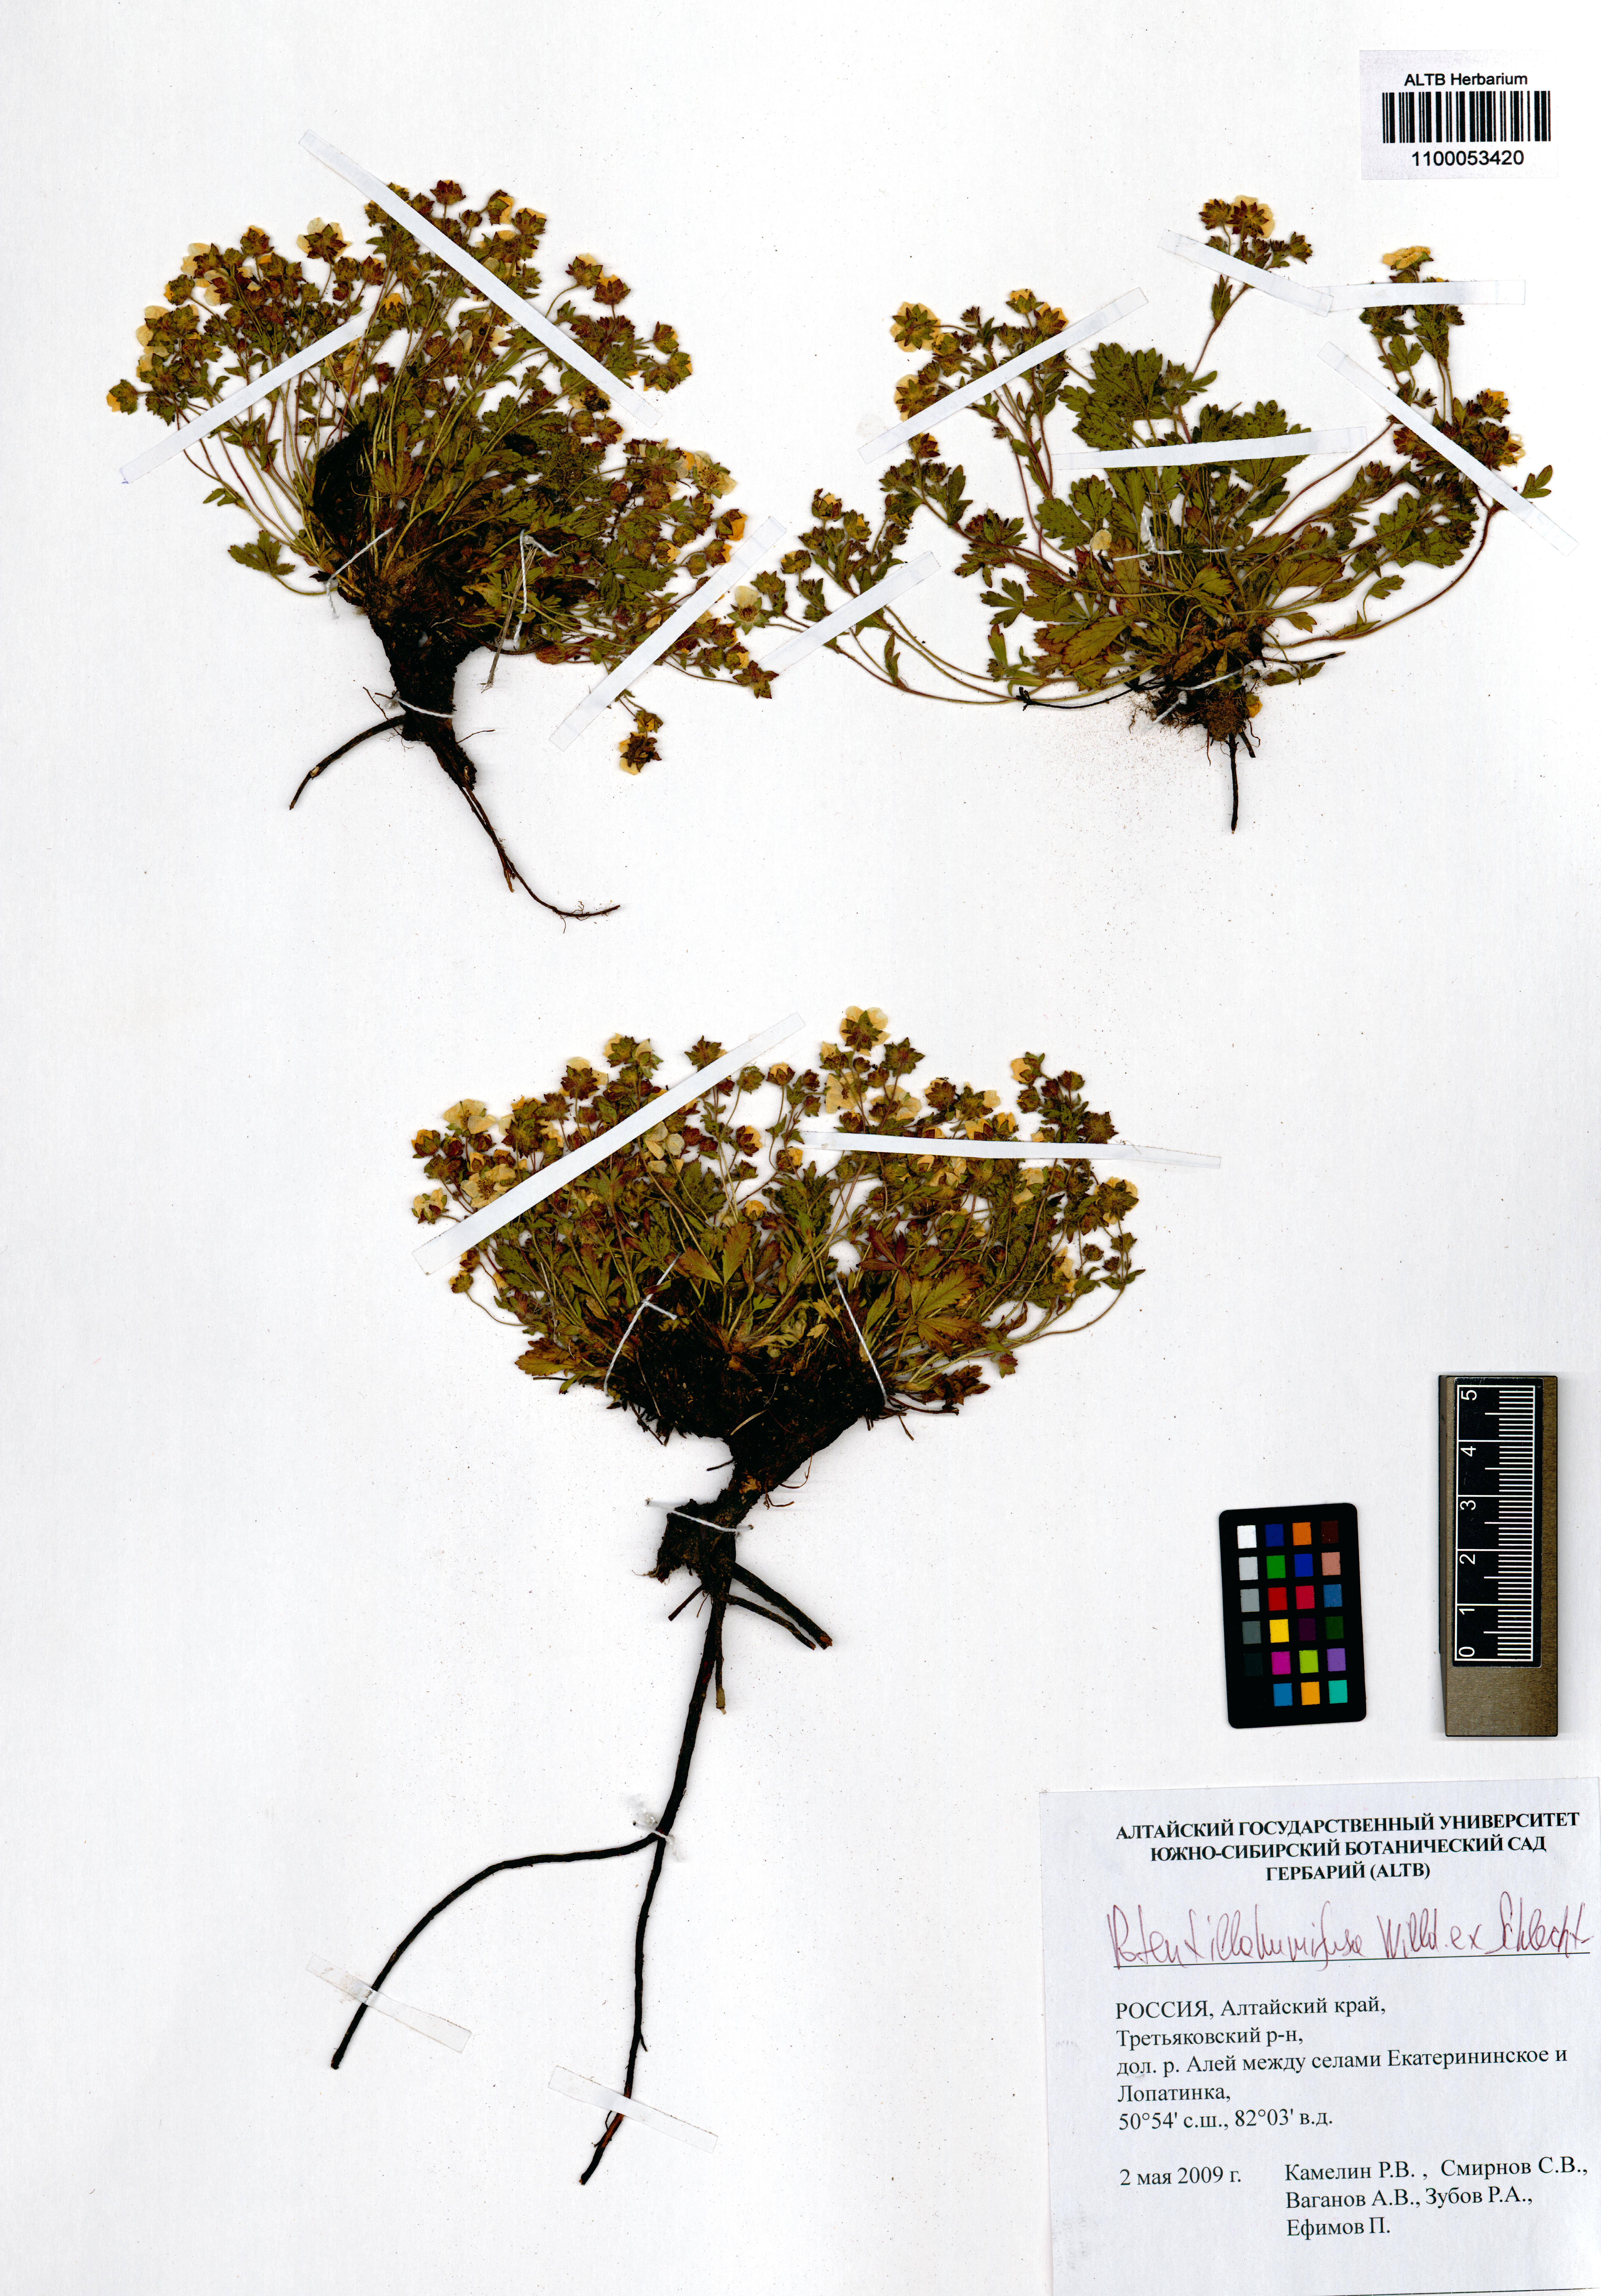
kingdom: Plantae
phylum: Tracheophyta
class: Magnoliopsida
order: Rosales
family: Rosaceae
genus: Potentilla
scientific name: Potentilla humifusa
